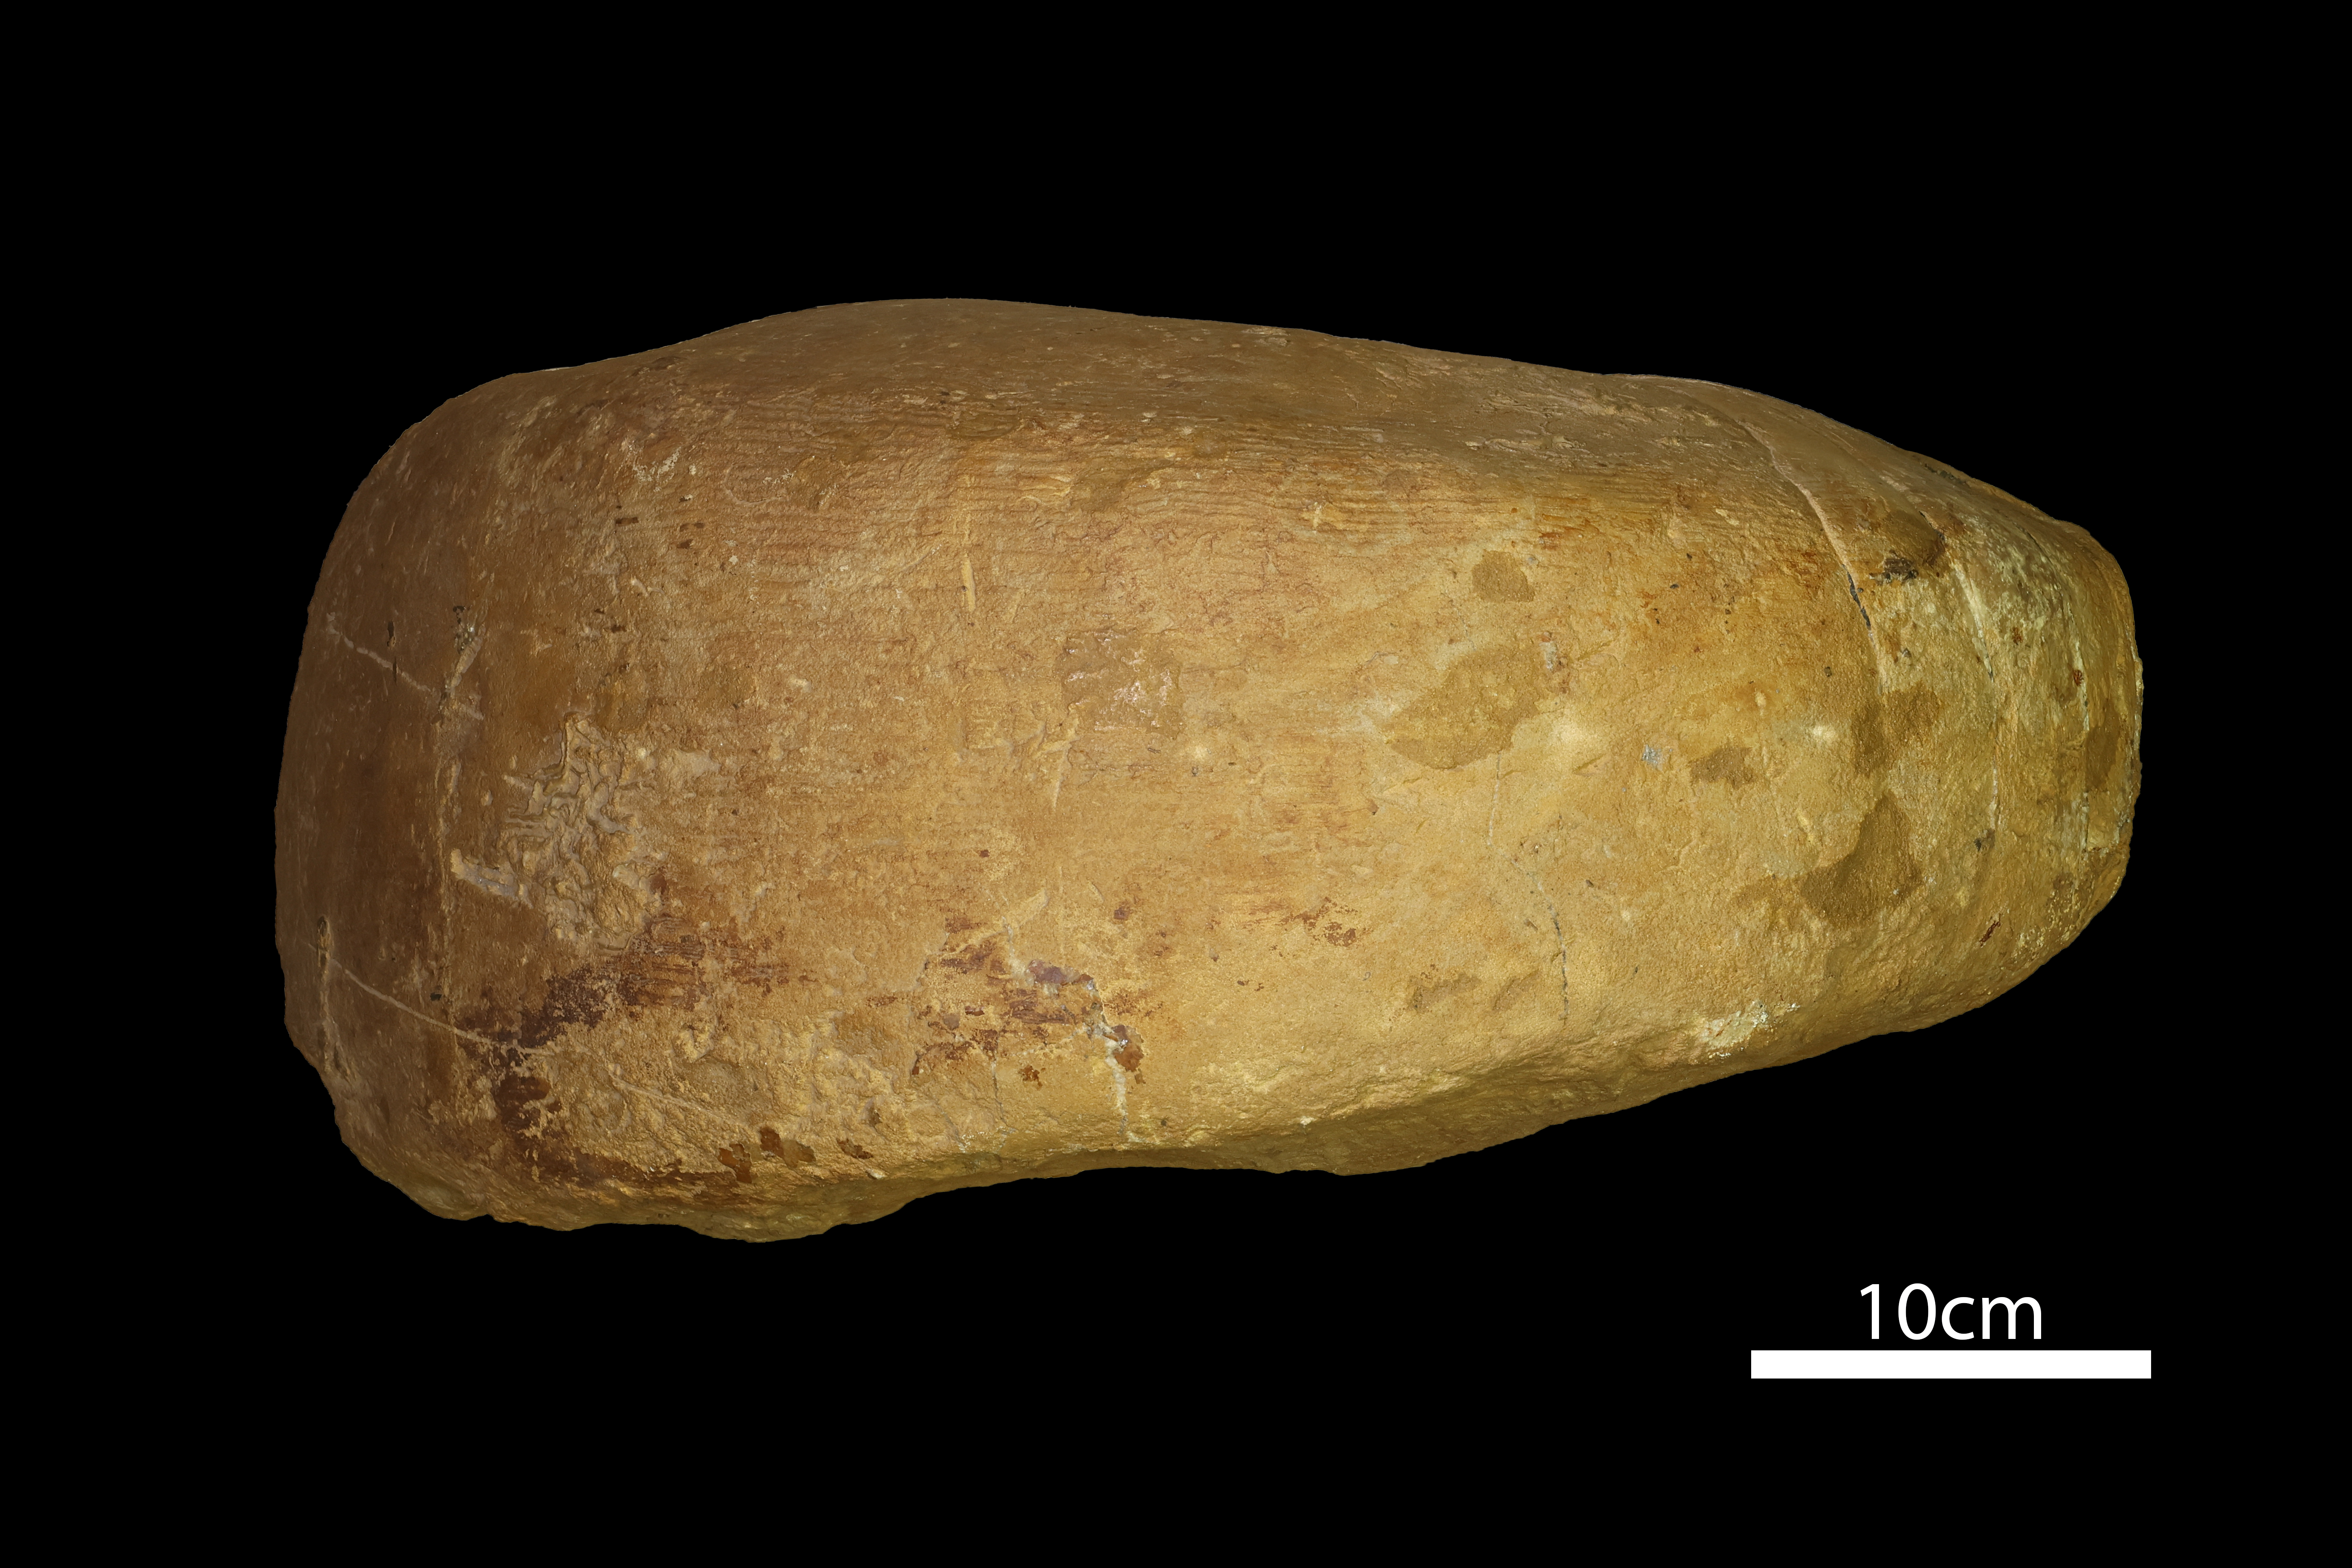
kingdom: Animalia
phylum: Mollusca
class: Cephalopoda
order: Nautilida
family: Nautilidae
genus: Cenoceras
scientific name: Cenoceras
